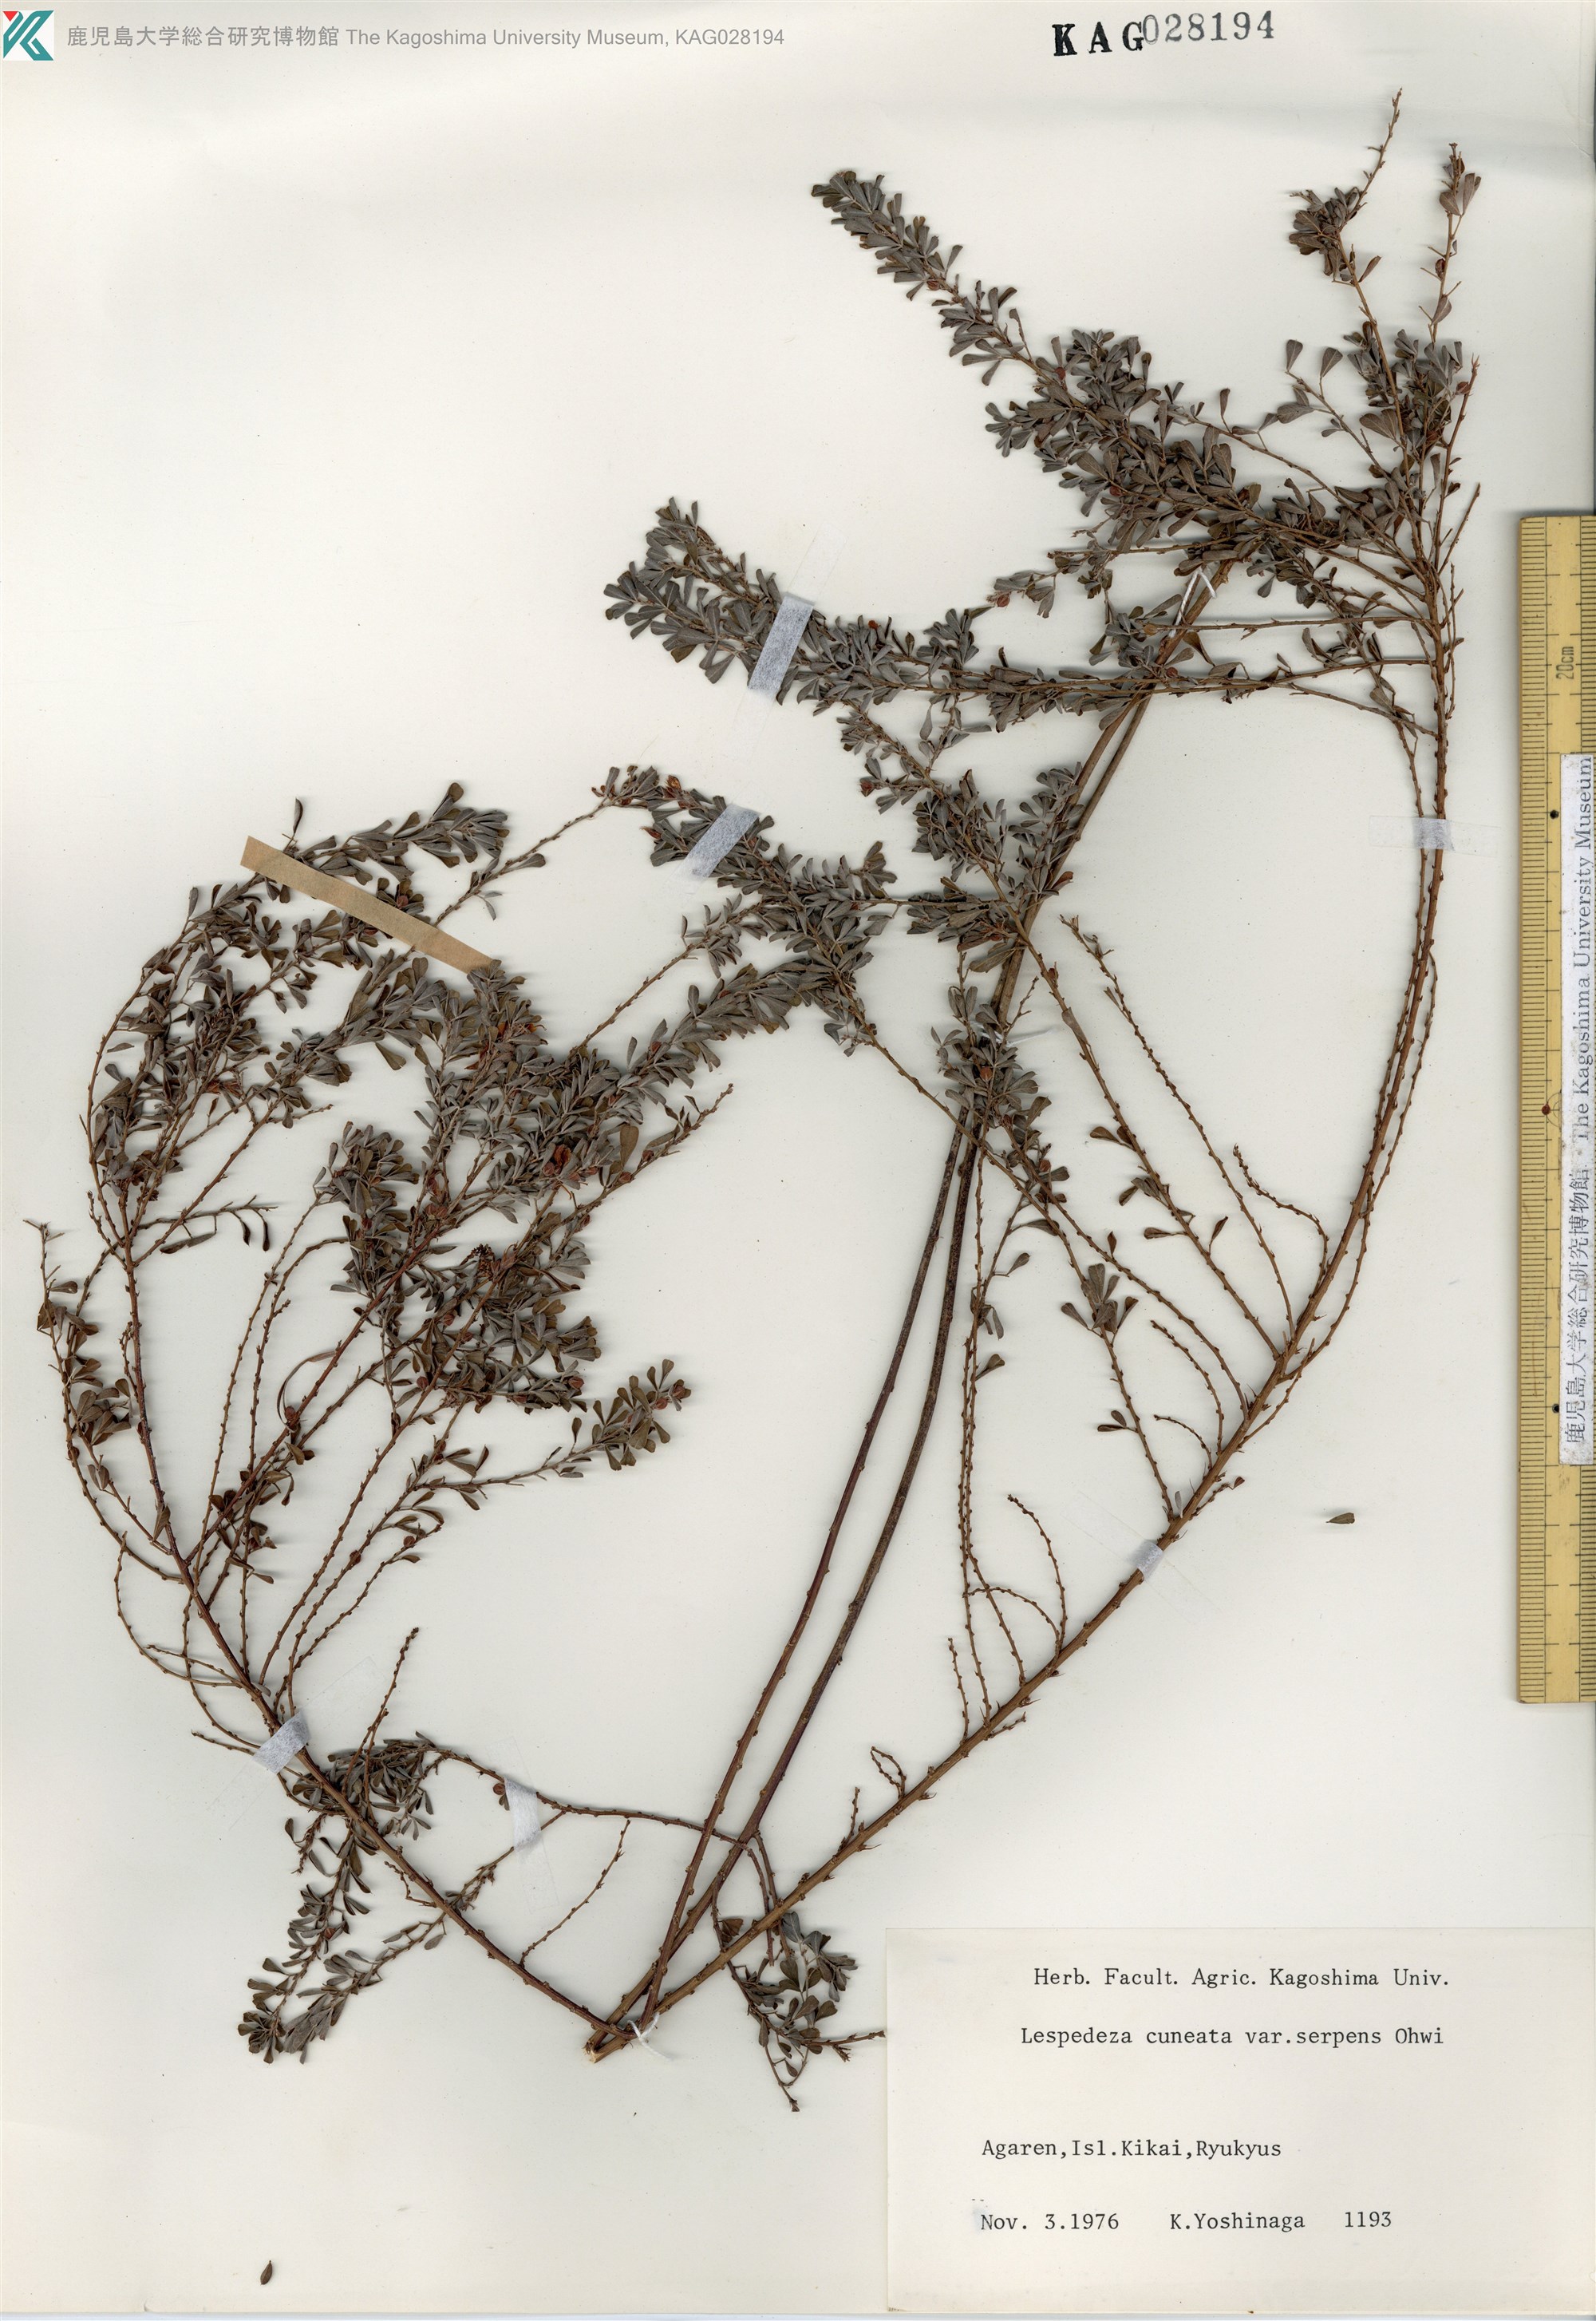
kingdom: Plantae
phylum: Tracheophyta
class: Magnoliopsida
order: Fabales
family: Fabaceae
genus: Lespedeza
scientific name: Lespedeza cuneata
